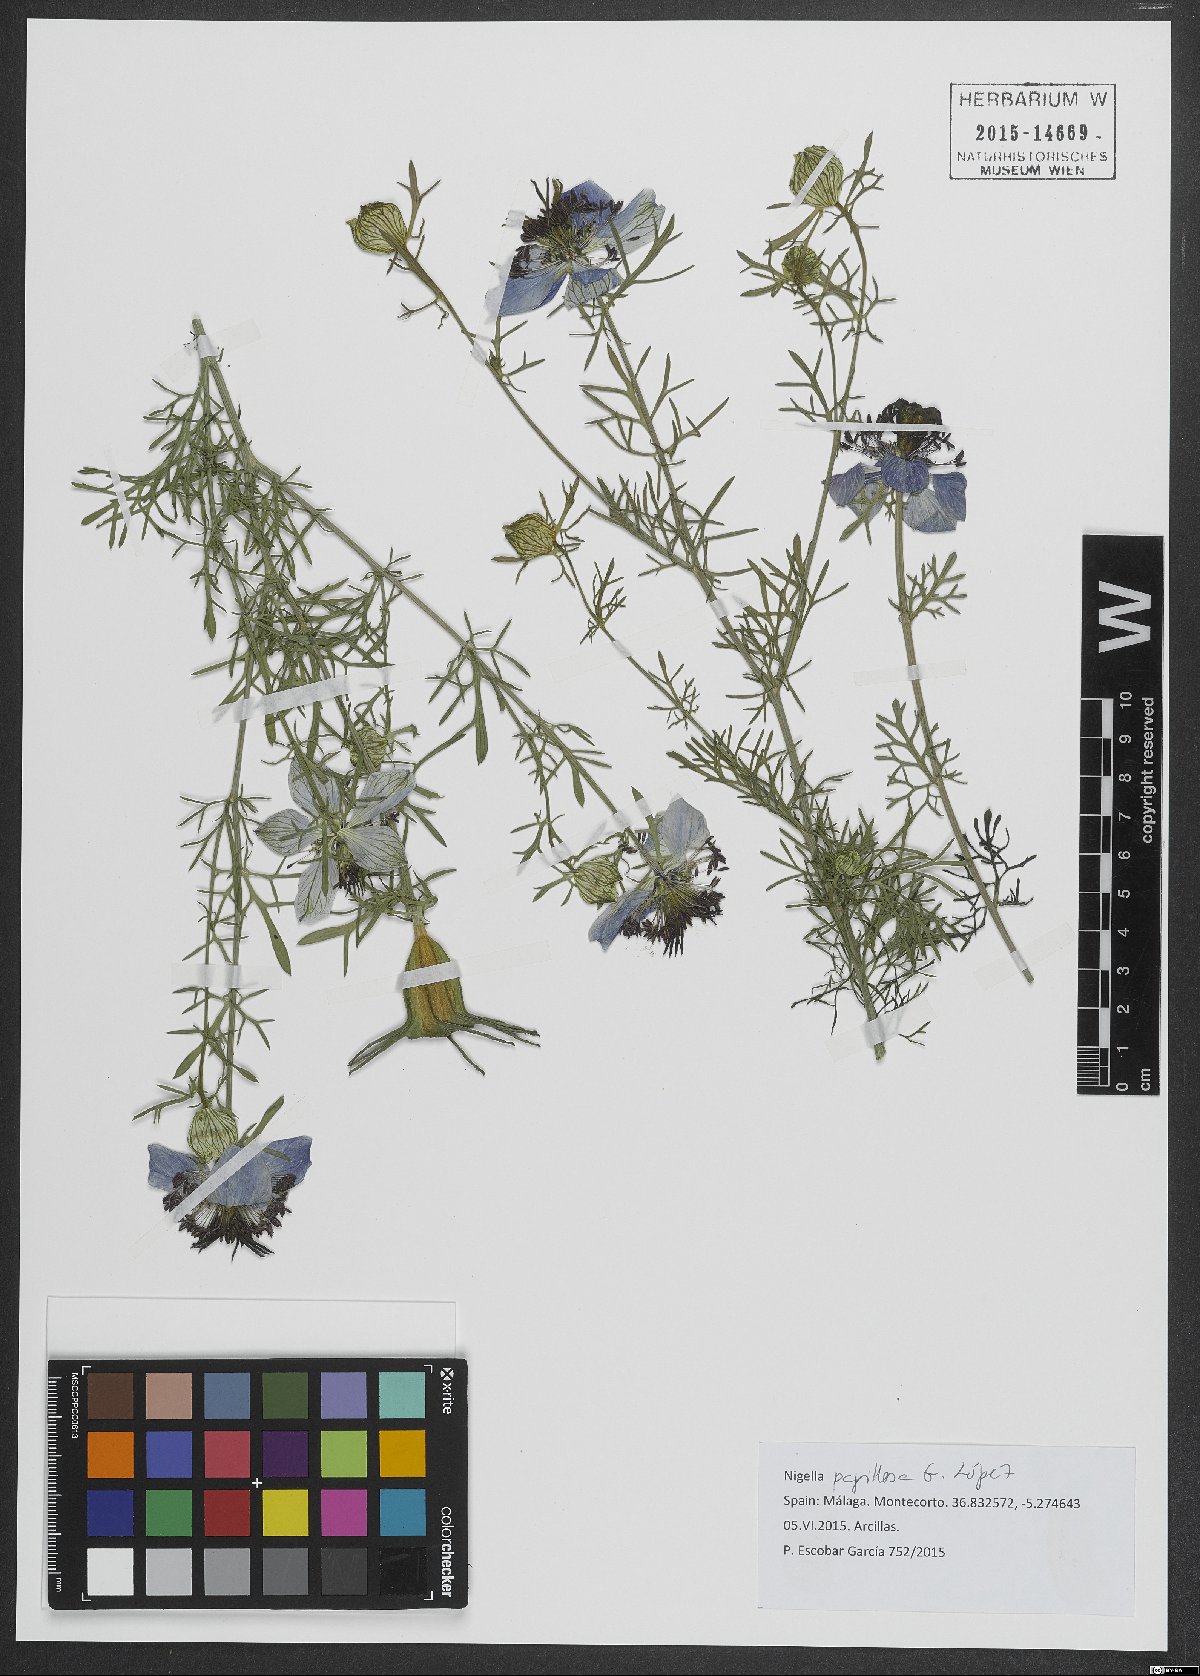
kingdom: Plantae
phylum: Tracheophyta
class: Magnoliopsida
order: Ranunculales
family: Ranunculaceae
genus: Nigella
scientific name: Nigella papillosa
